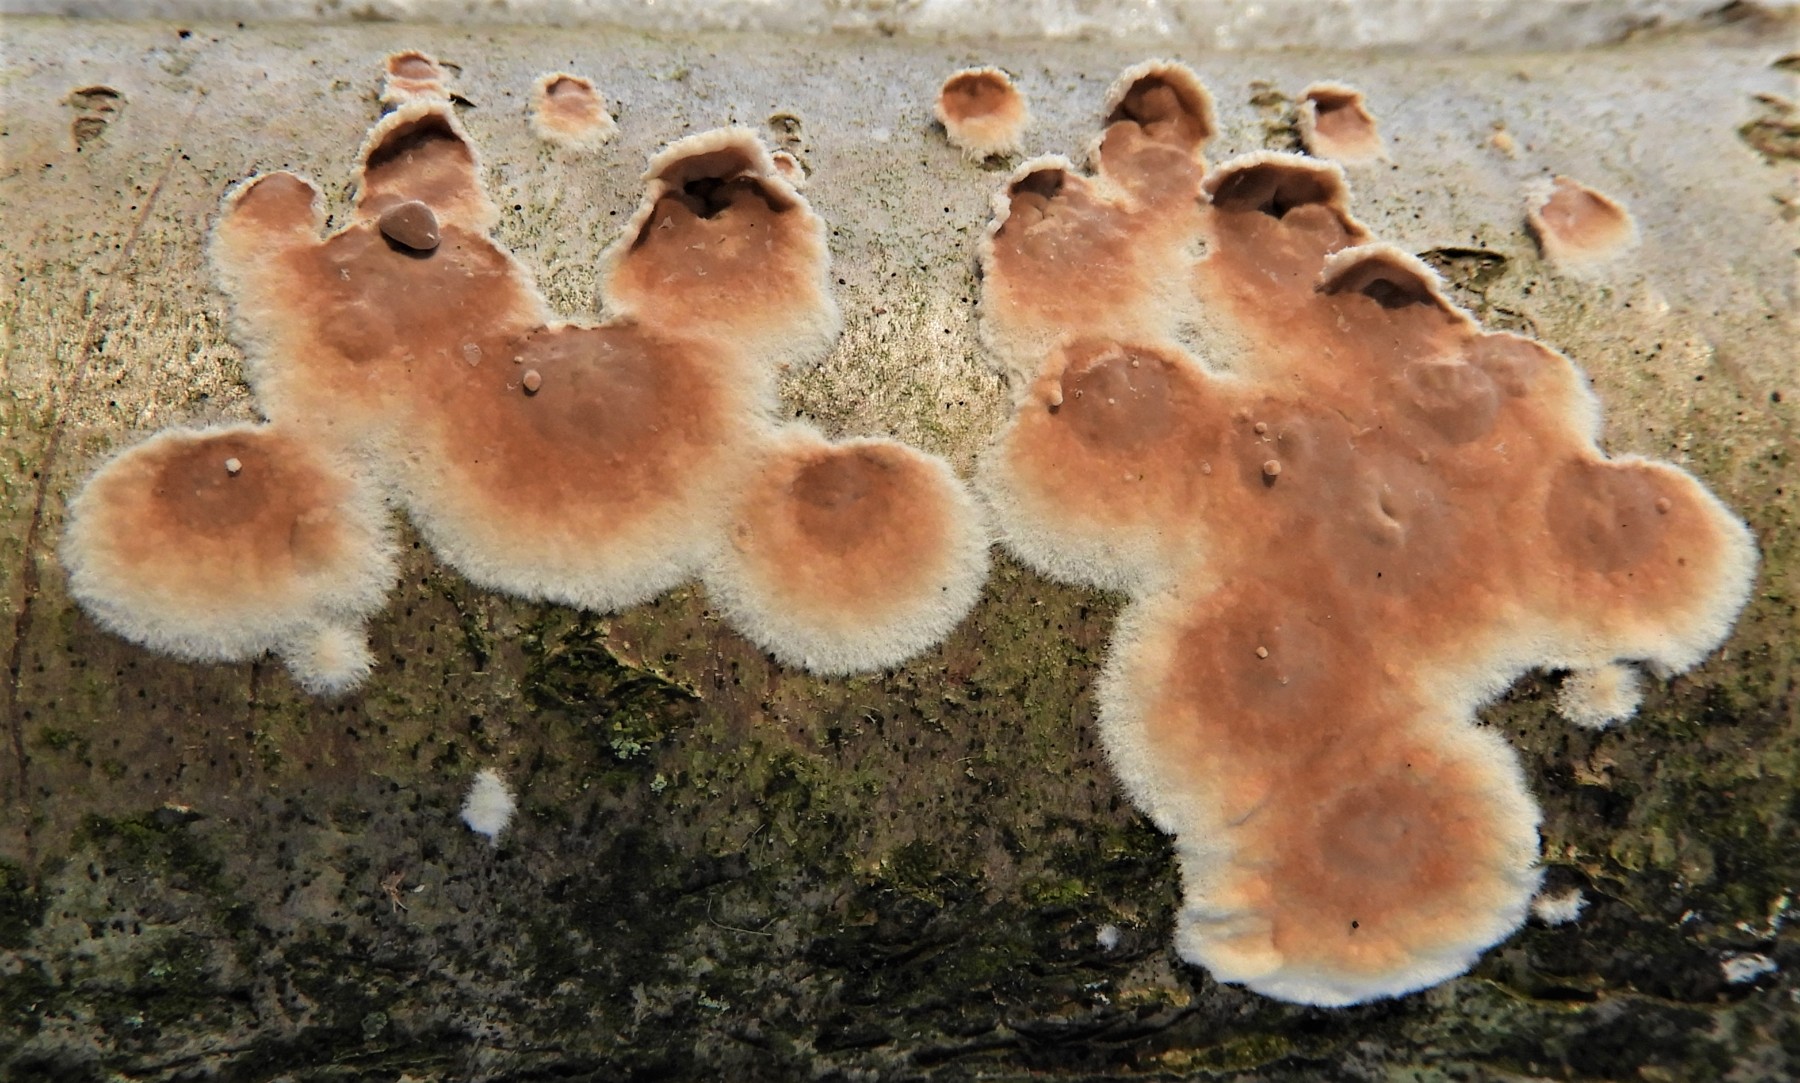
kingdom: Fungi
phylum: Basidiomycota
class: Agaricomycetes
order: Agaricales
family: Physalacriaceae
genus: Cylindrobasidium
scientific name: Cylindrobasidium evolvens
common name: sprækkehinde
